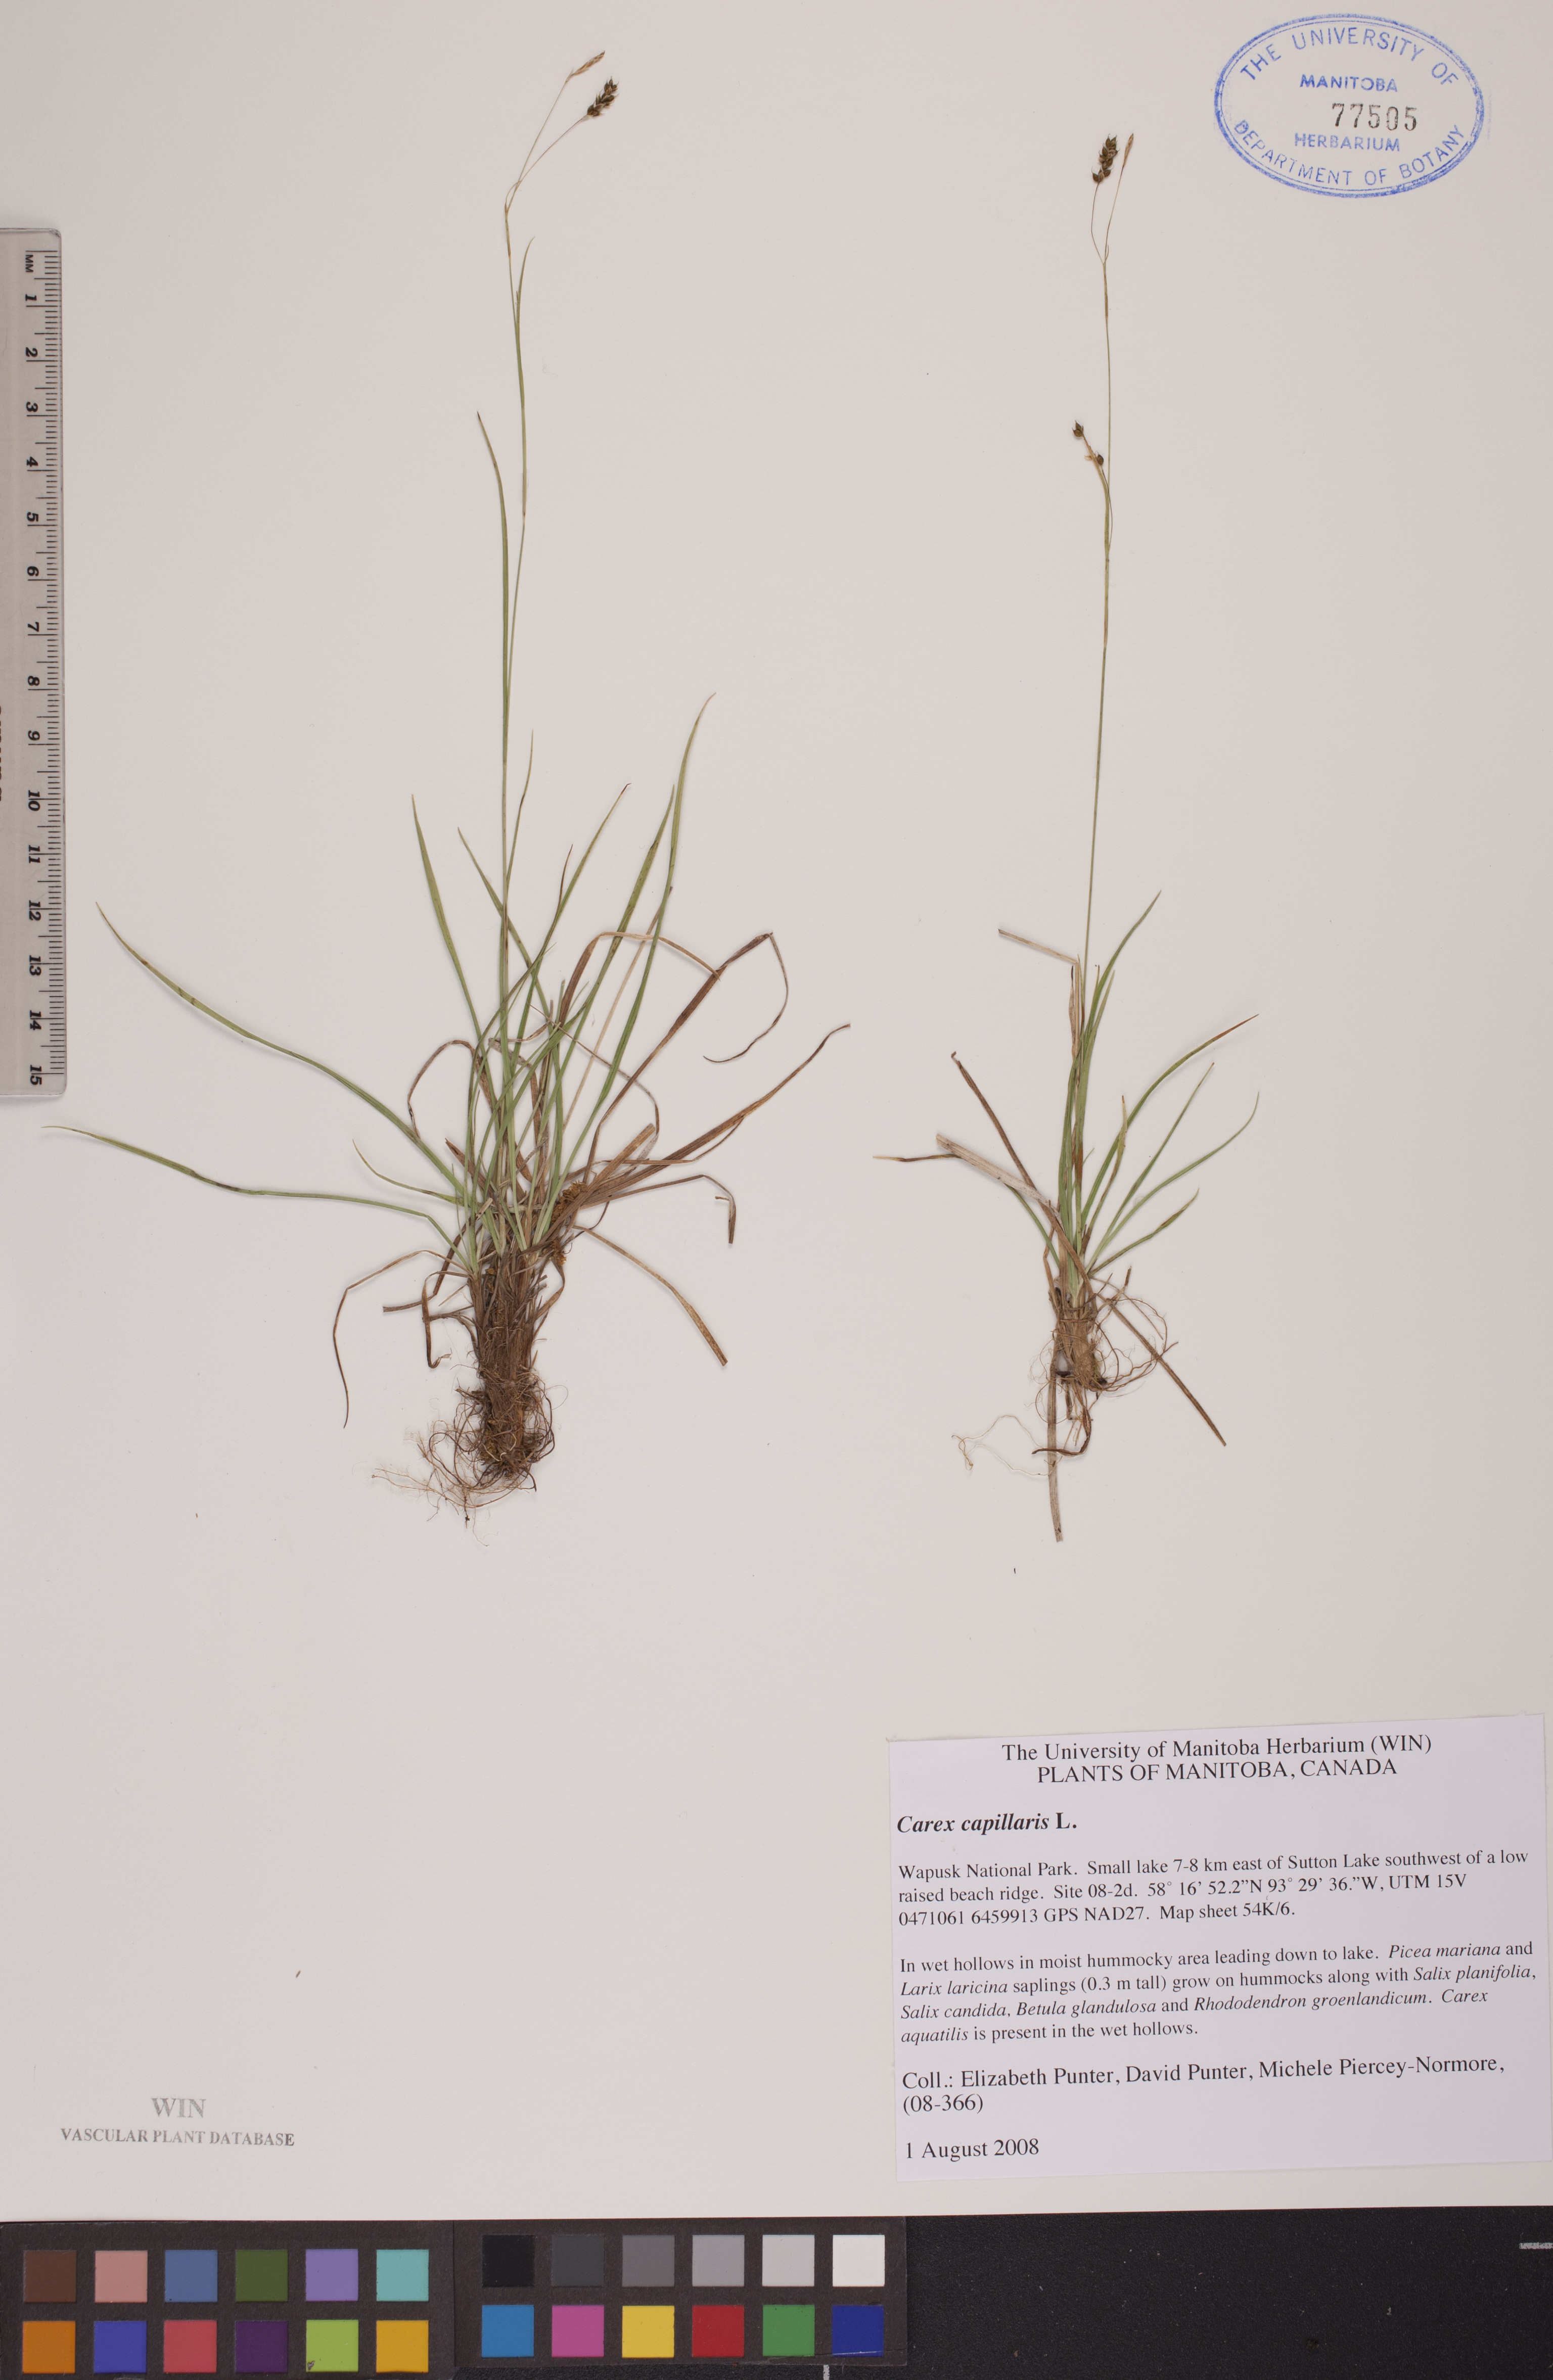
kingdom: Plantae
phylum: Tracheophyta
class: Liliopsida
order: Poales
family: Cyperaceae
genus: Carex
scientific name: Carex capillaris
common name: Hair sedge
